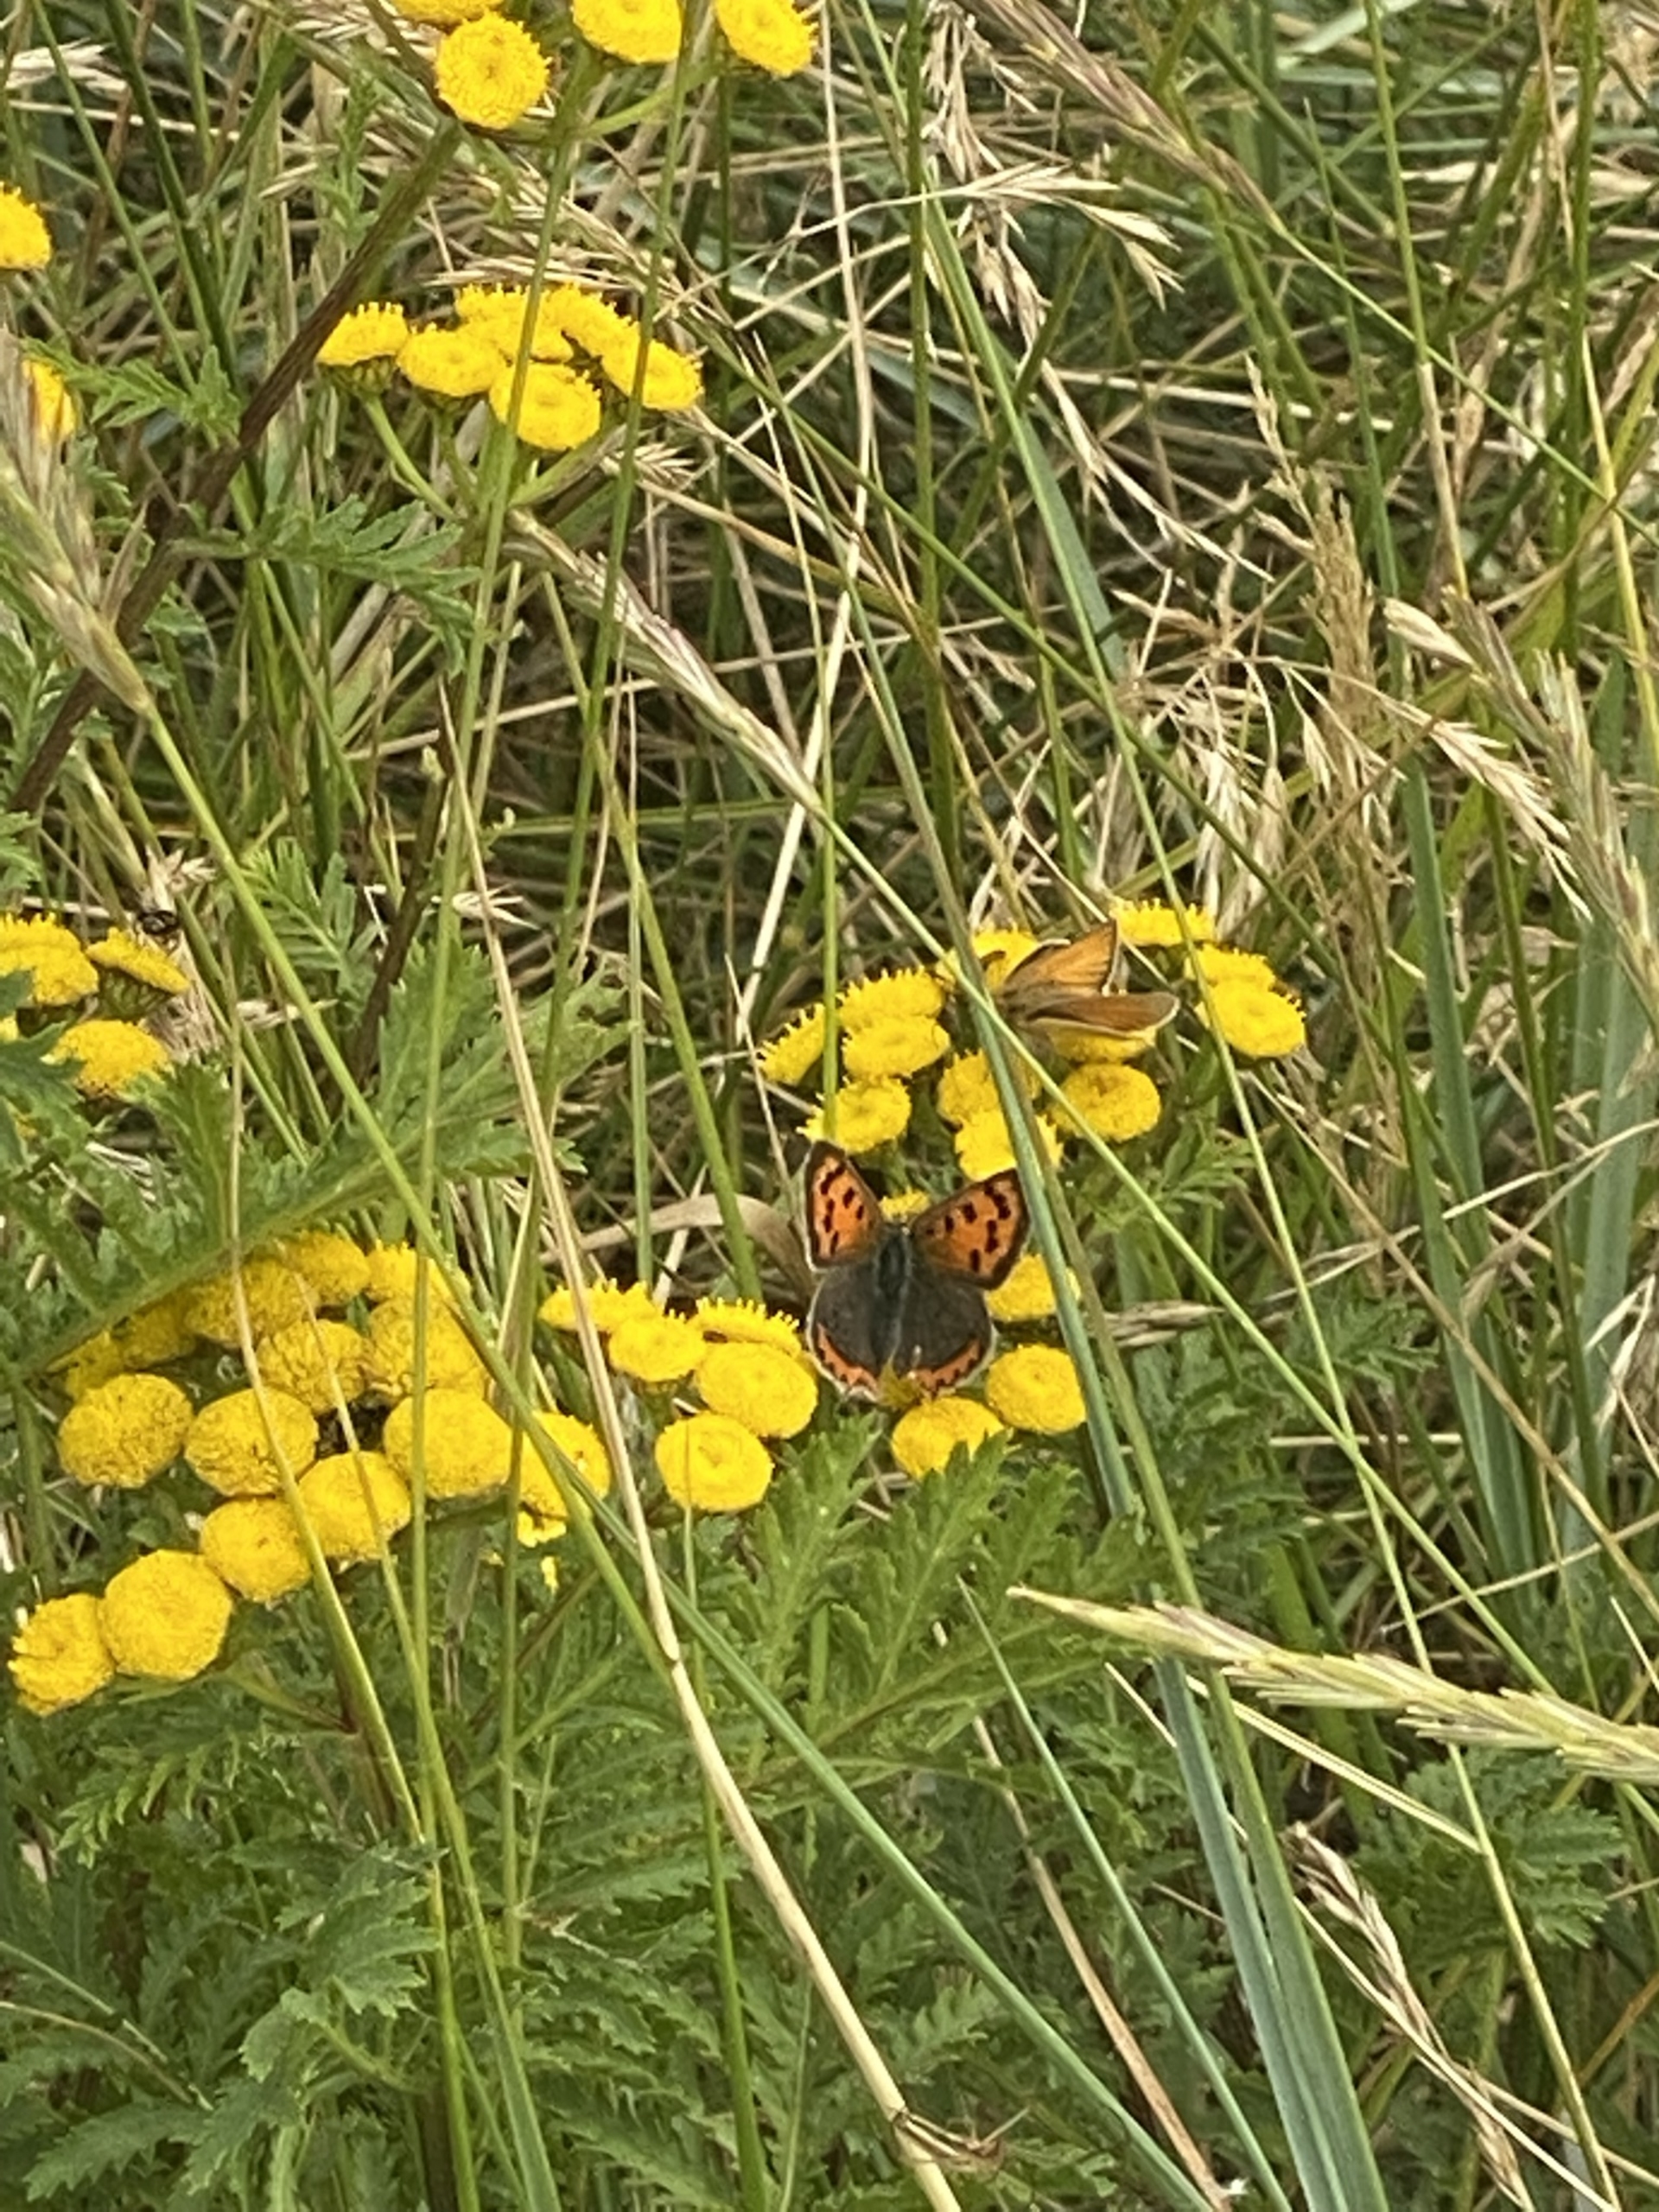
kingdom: Animalia
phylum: Arthropoda
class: Insecta
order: Lepidoptera
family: Lycaenidae
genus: Lycaena
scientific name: Lycaena phlaeas
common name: Lille ildfugl
